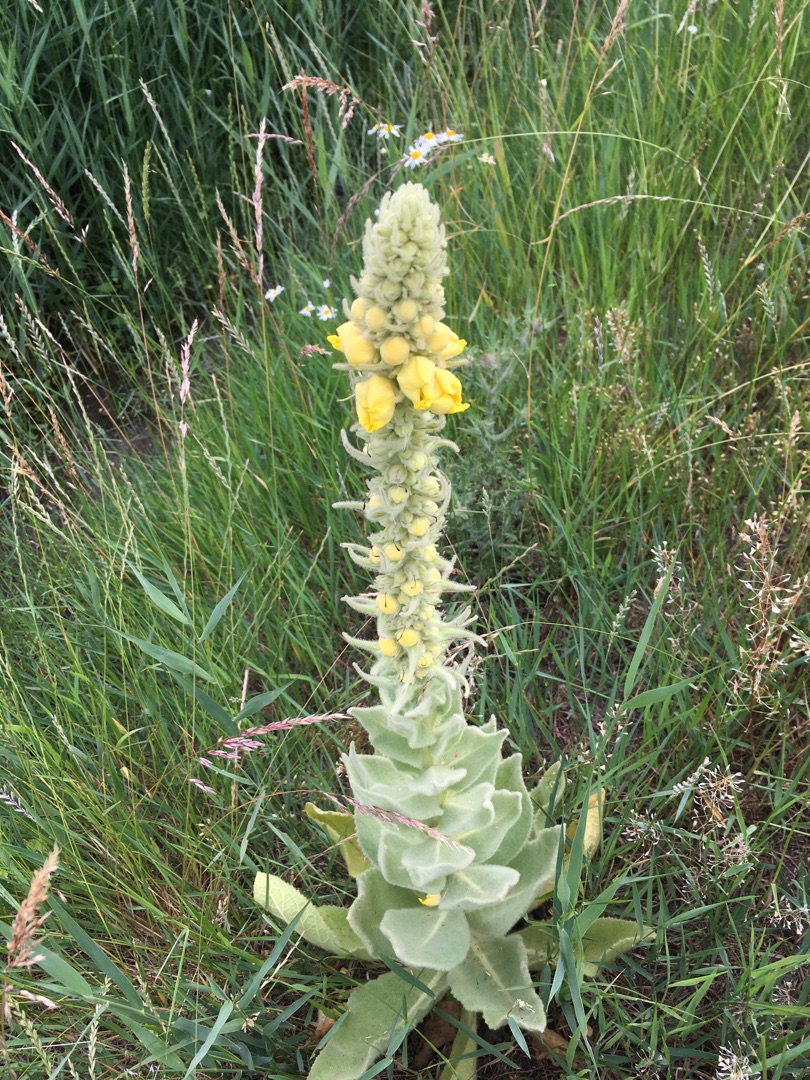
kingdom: Plantae
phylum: Tracheophyta
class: Magnoliopsida
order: Lamiales
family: Scrophulariaceae
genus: Verbascum
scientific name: Verbascum thapsus
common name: Filtbladet kongelys
